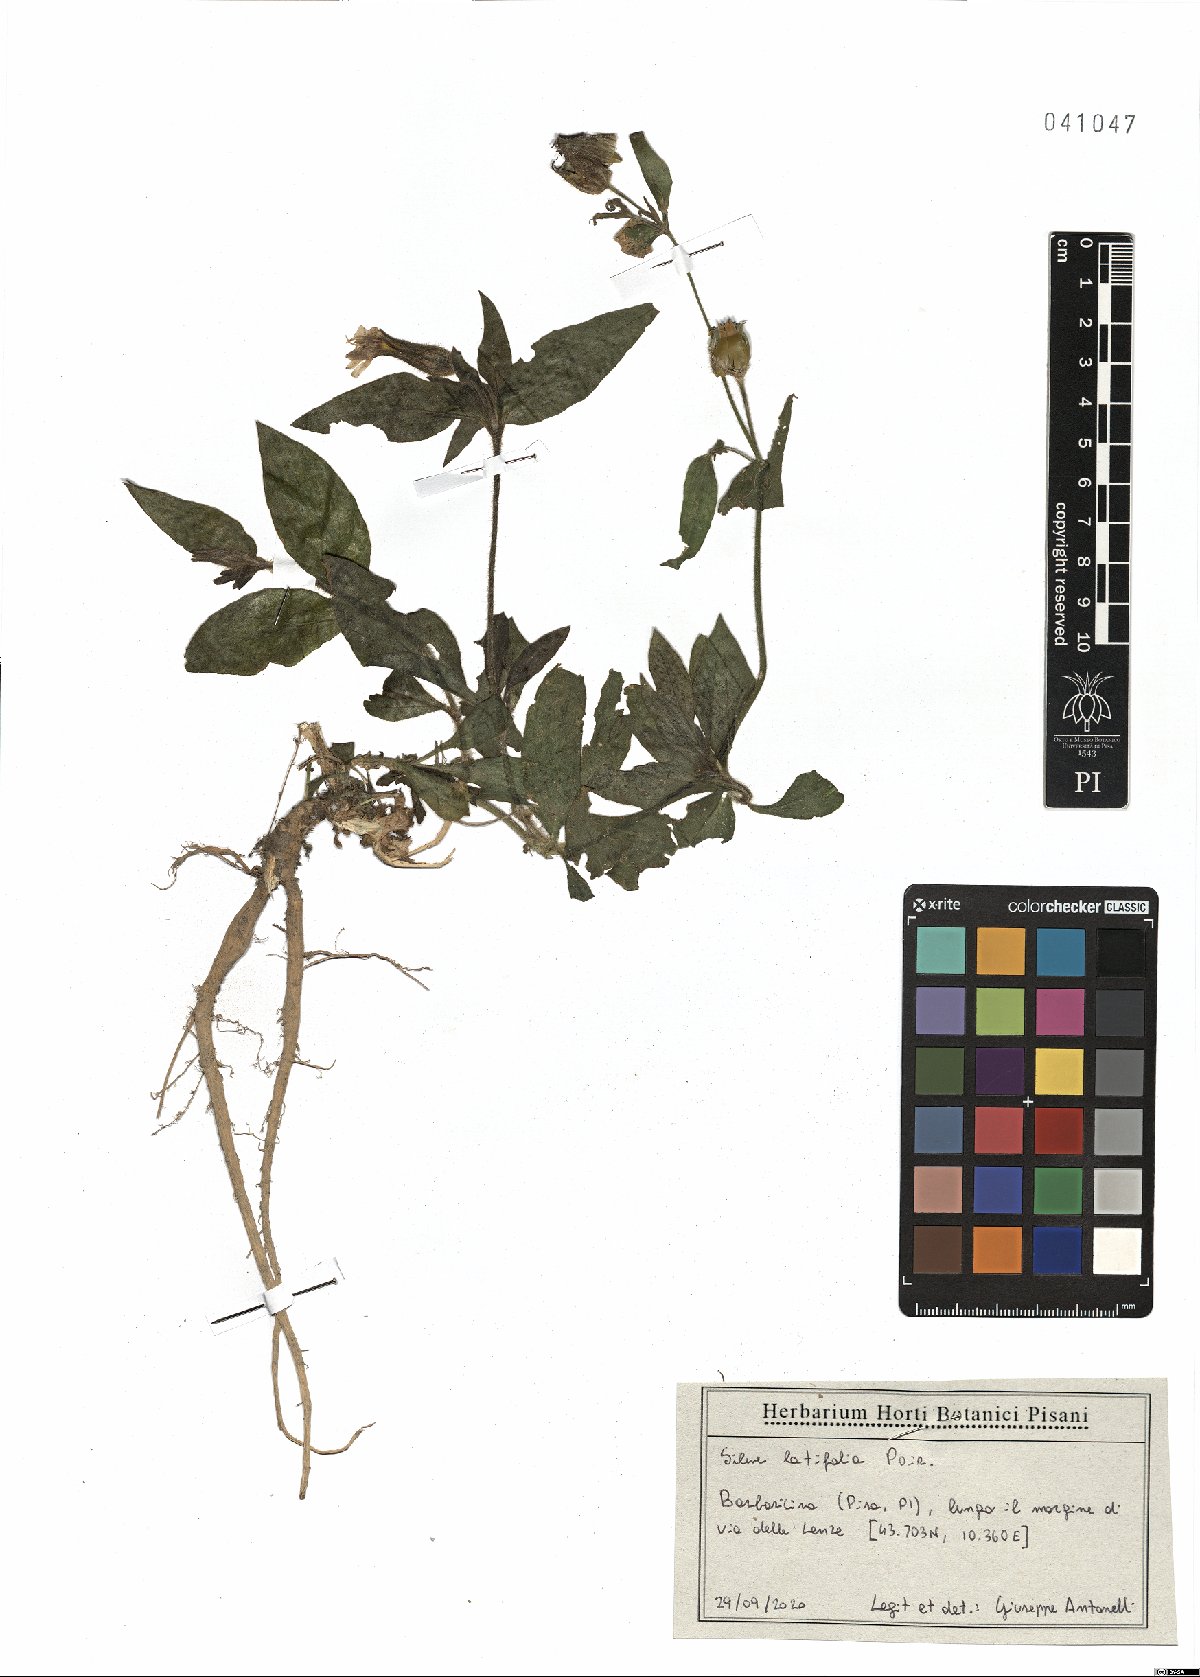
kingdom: Plantae
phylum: Tracheophyta
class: Magnoliopsida
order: Caryophyllales
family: Caryophyllaceae
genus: Silene
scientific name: Silene latifolia
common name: White campion
